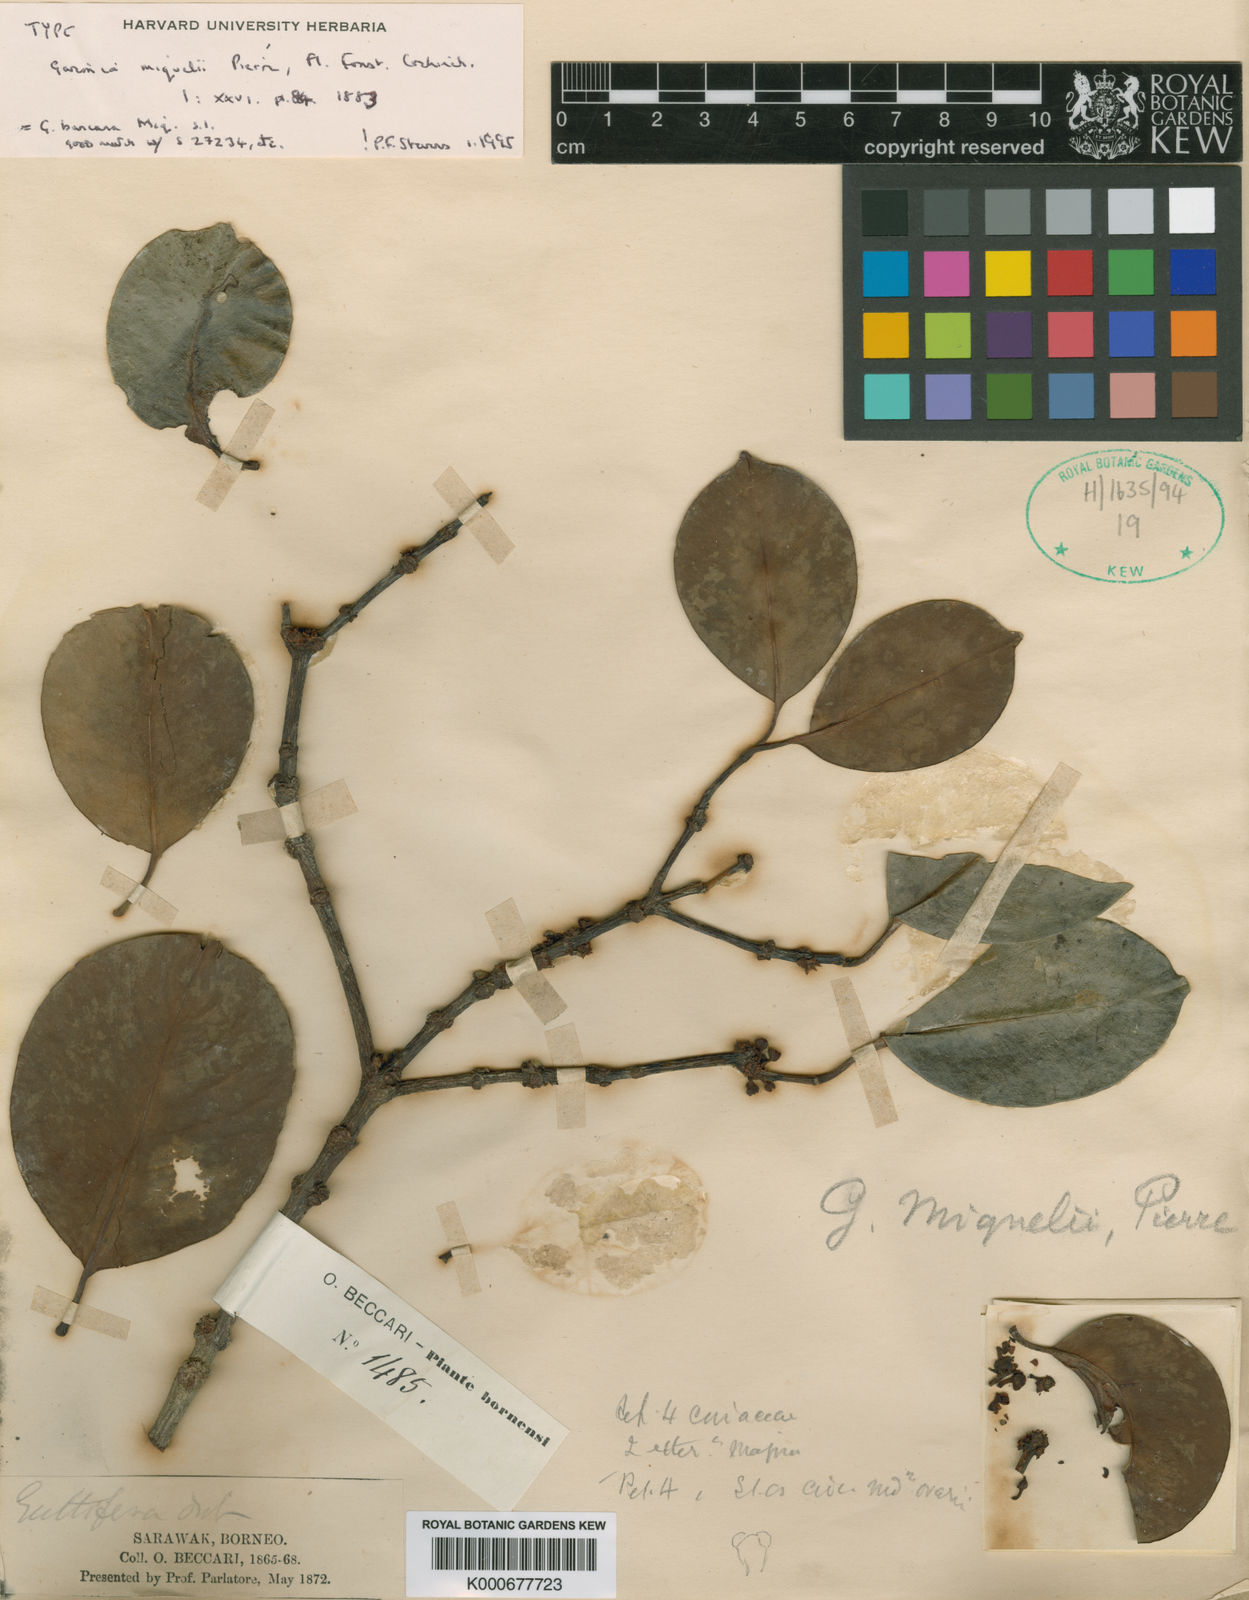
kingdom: Plantae
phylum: Tracheophyta
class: Magnoliopsida
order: Malpighiales
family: Clusiaceae
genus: Garcinia
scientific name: Garcinia miquelii
